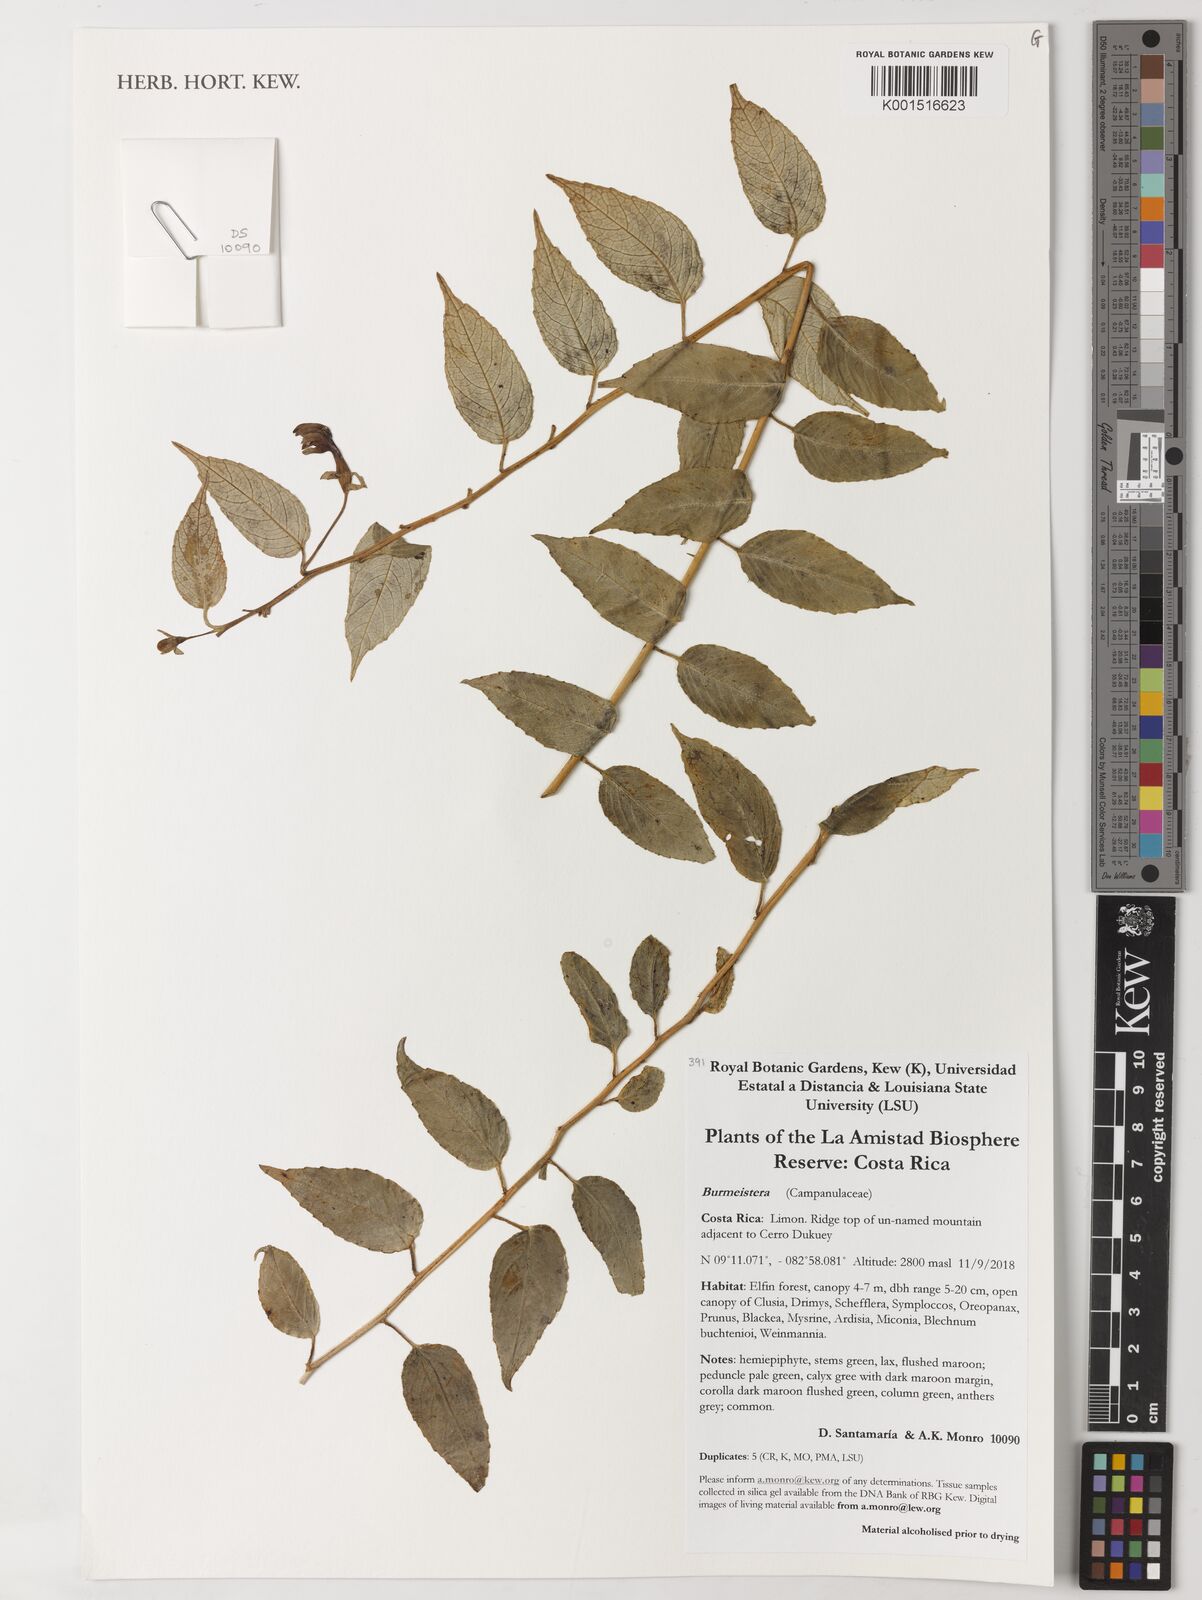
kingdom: Plantae
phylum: Tracheophyta
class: Magnoliopsida
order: Asterales
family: Campanulaceae
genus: Burmeistera
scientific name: Burmeistera
